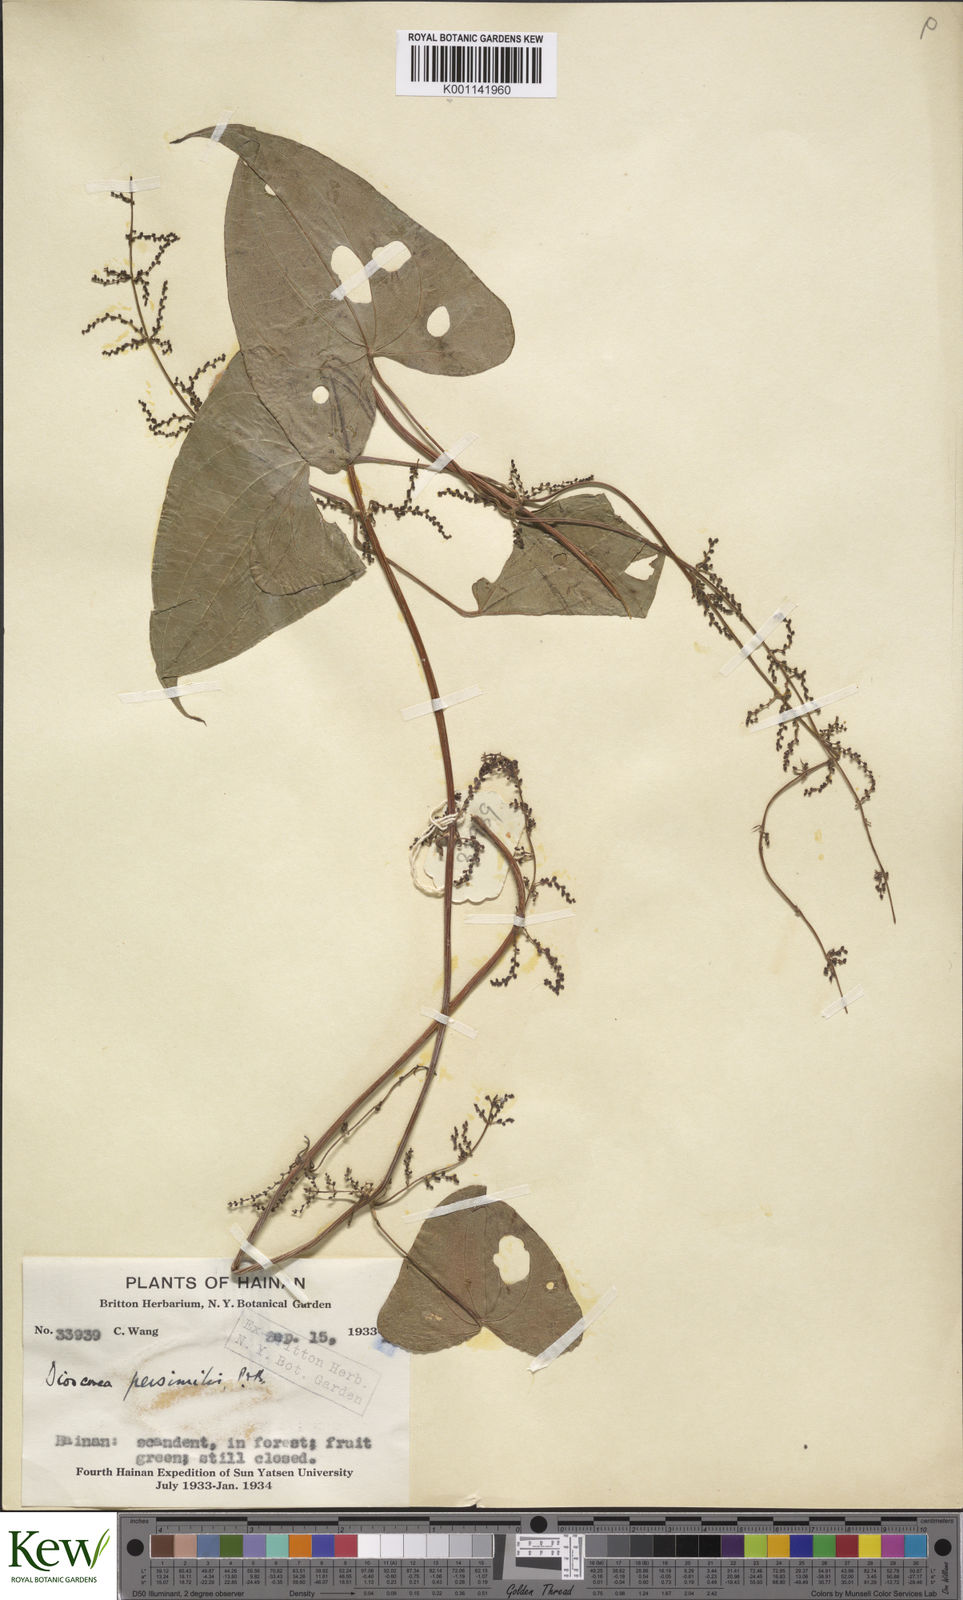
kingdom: Plantae
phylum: Tracheophyta
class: Liliopsida
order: Dioscoreales
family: Dioscoreaceae
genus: Dioscorea
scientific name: Dioscorea hamiltonii
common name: Mountain yam
